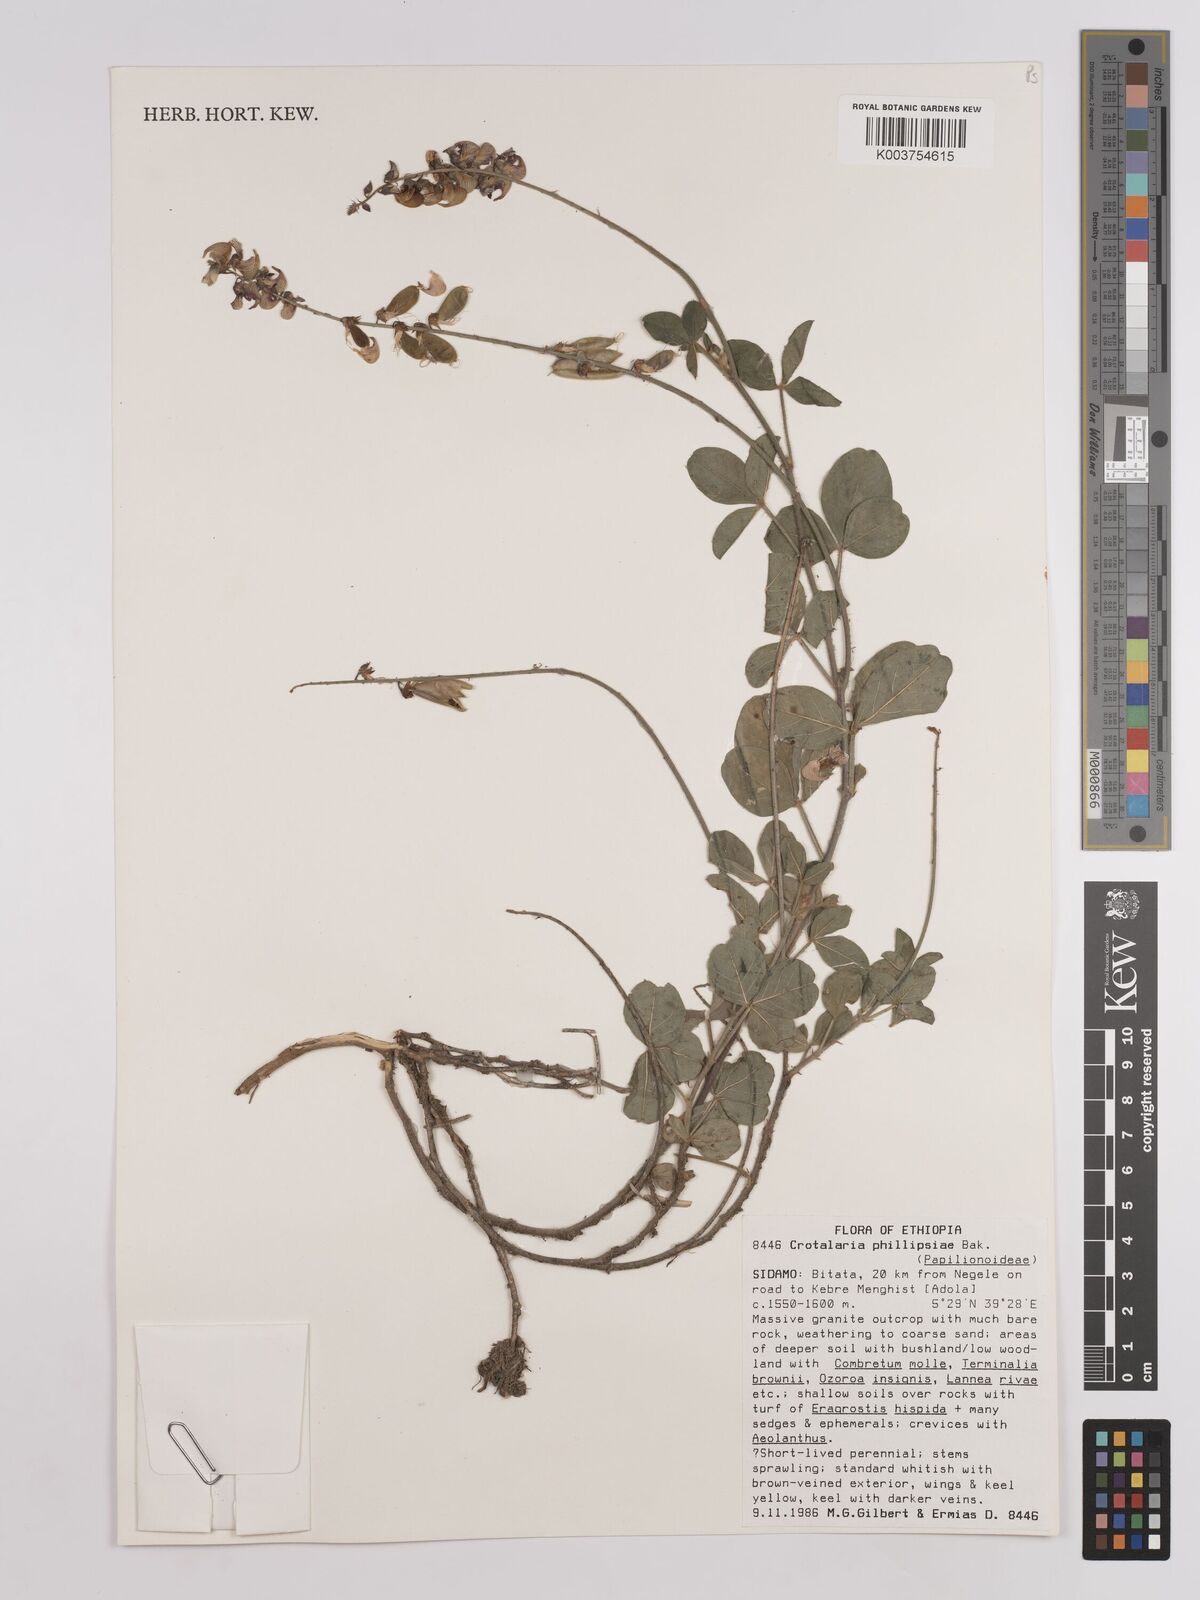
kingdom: Plantae
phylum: Tracheophyta
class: Magnoliopsida
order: Fabales
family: Fabaceae
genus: Crotalaria
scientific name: Crotalaria phillipsiae
